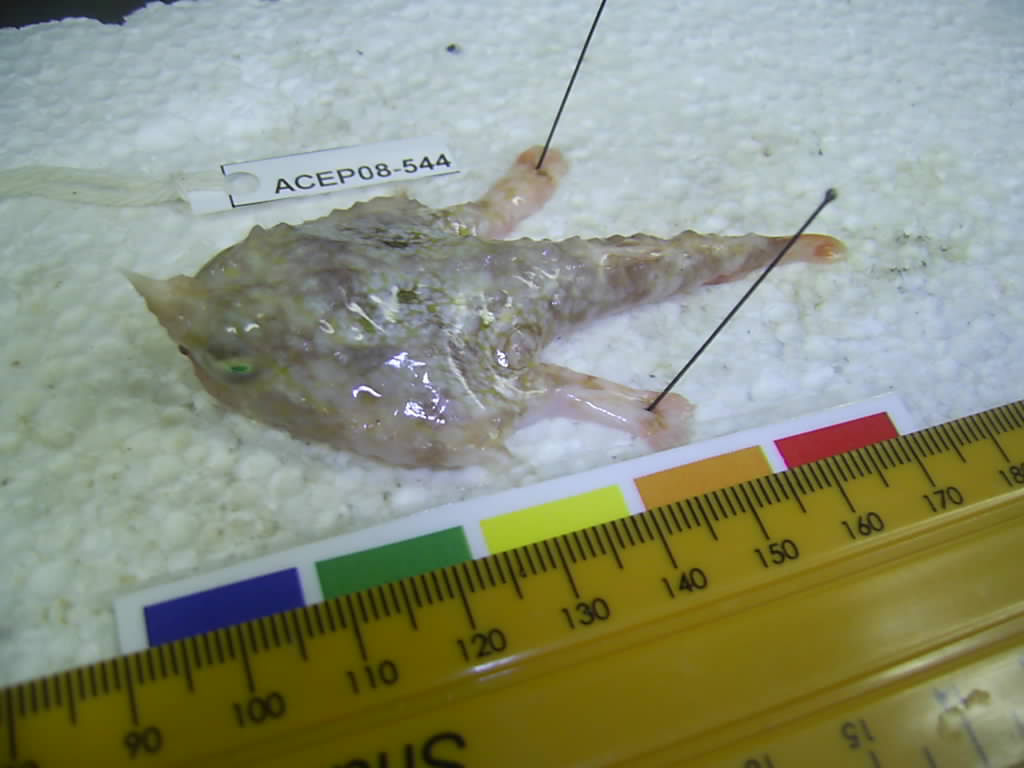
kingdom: Animalia
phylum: Chordata
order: Lophiiformes
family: Ogcocephalidae
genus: Malthopsis
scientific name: Malthopsis tiarella
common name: Spearnose seabat
